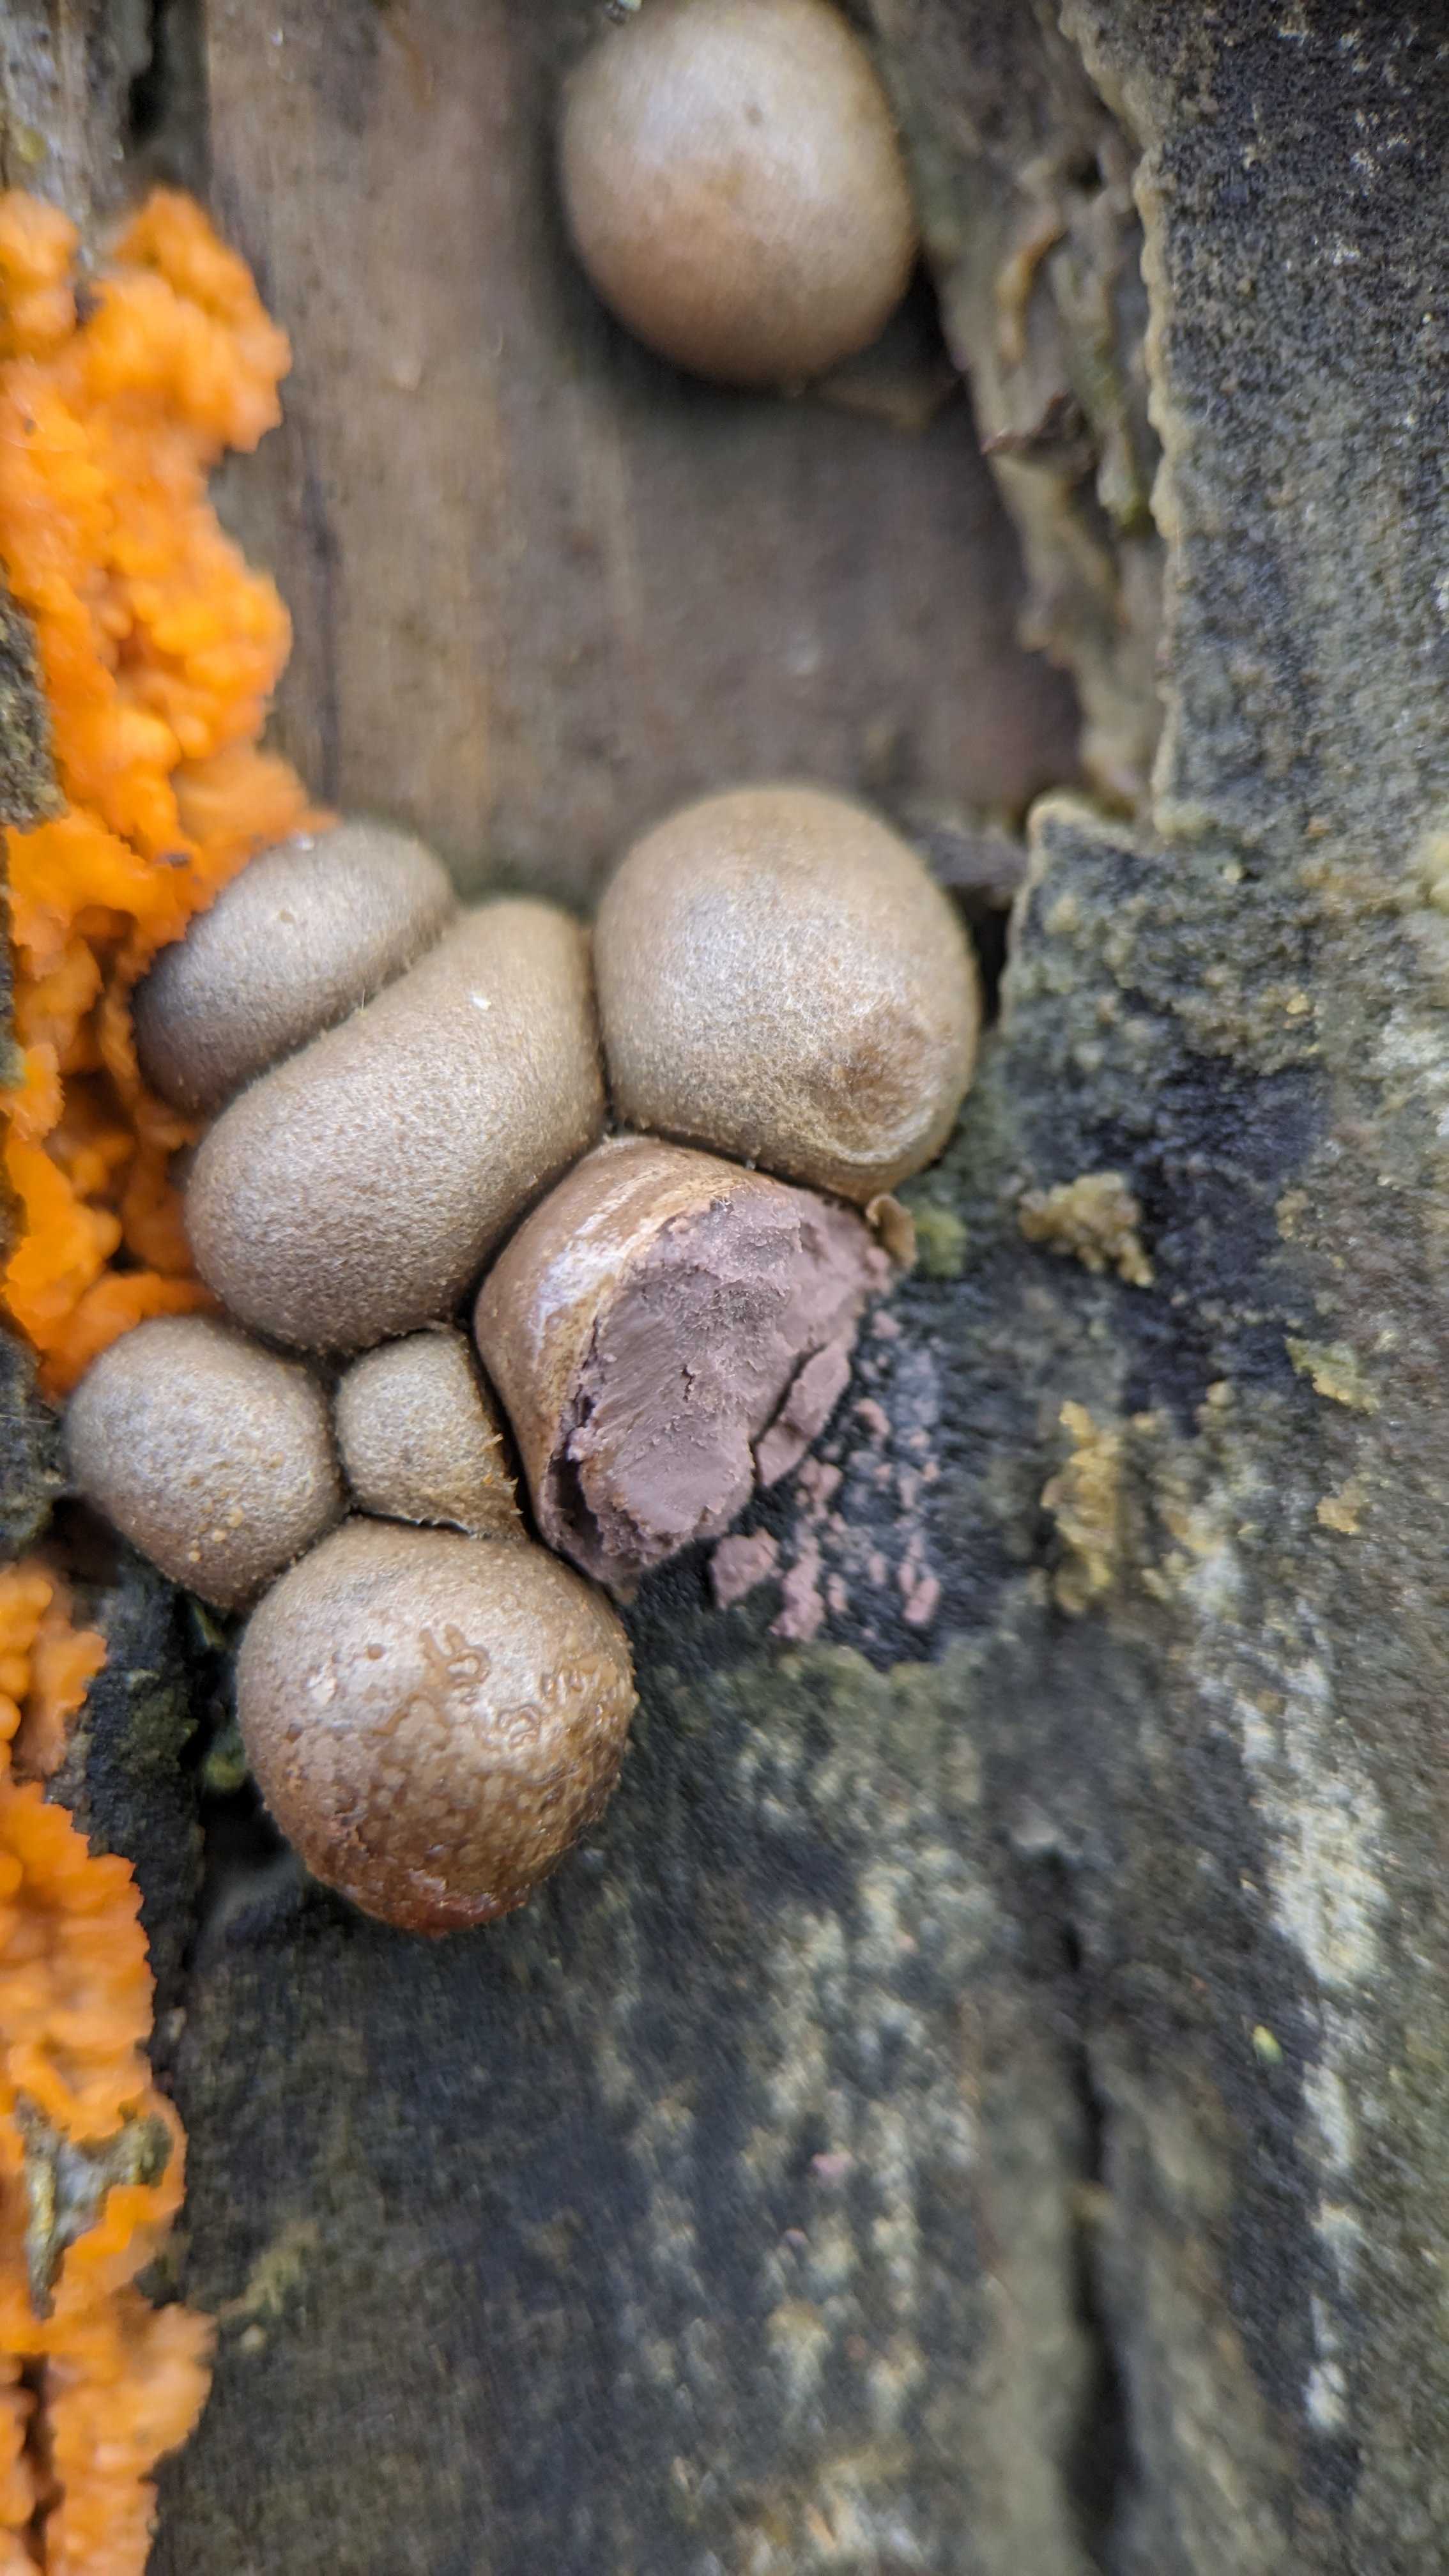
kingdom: Protozoa
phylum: Mycetozoa
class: Myxomycetes
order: Cribrariales
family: Tubiferaceae
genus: Lycogala
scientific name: Lycogala epidendrum
